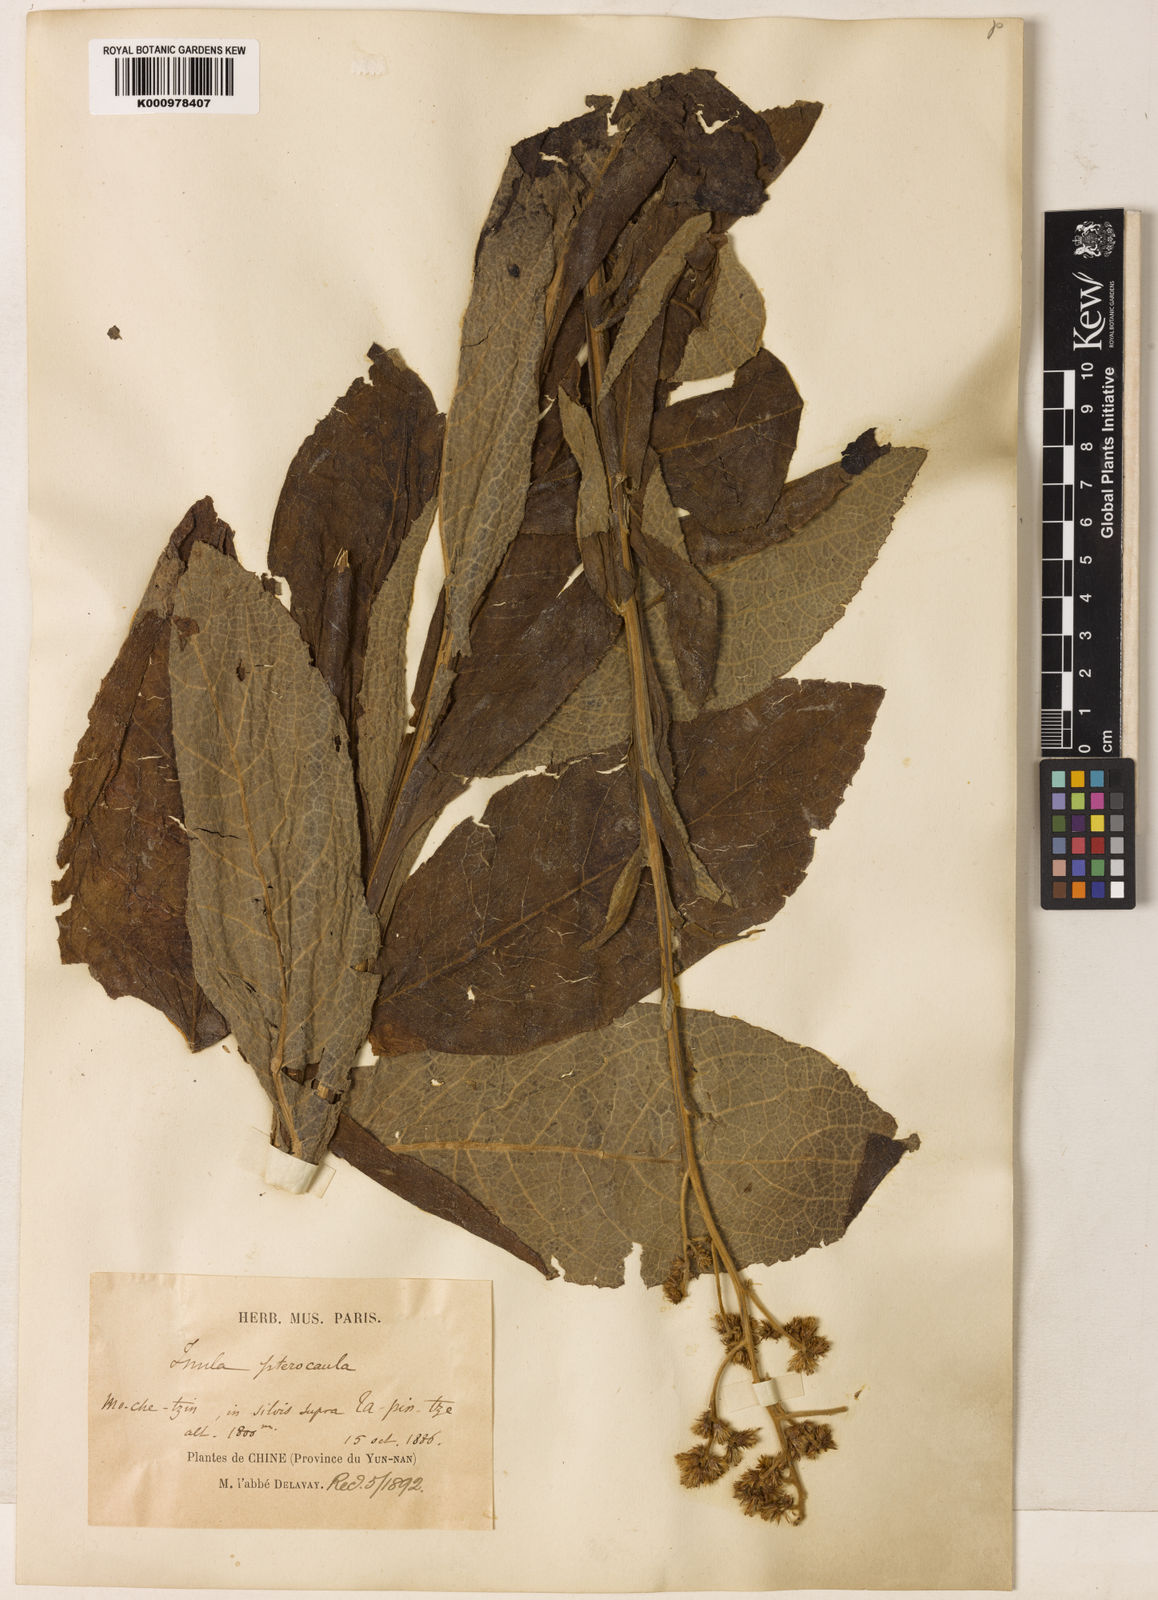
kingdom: Plantae
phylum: Tracheophyta
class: Magnoliopsida
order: Asterales
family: Asteraceae
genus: Duhaldea
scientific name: Duhaldea pterocaula
